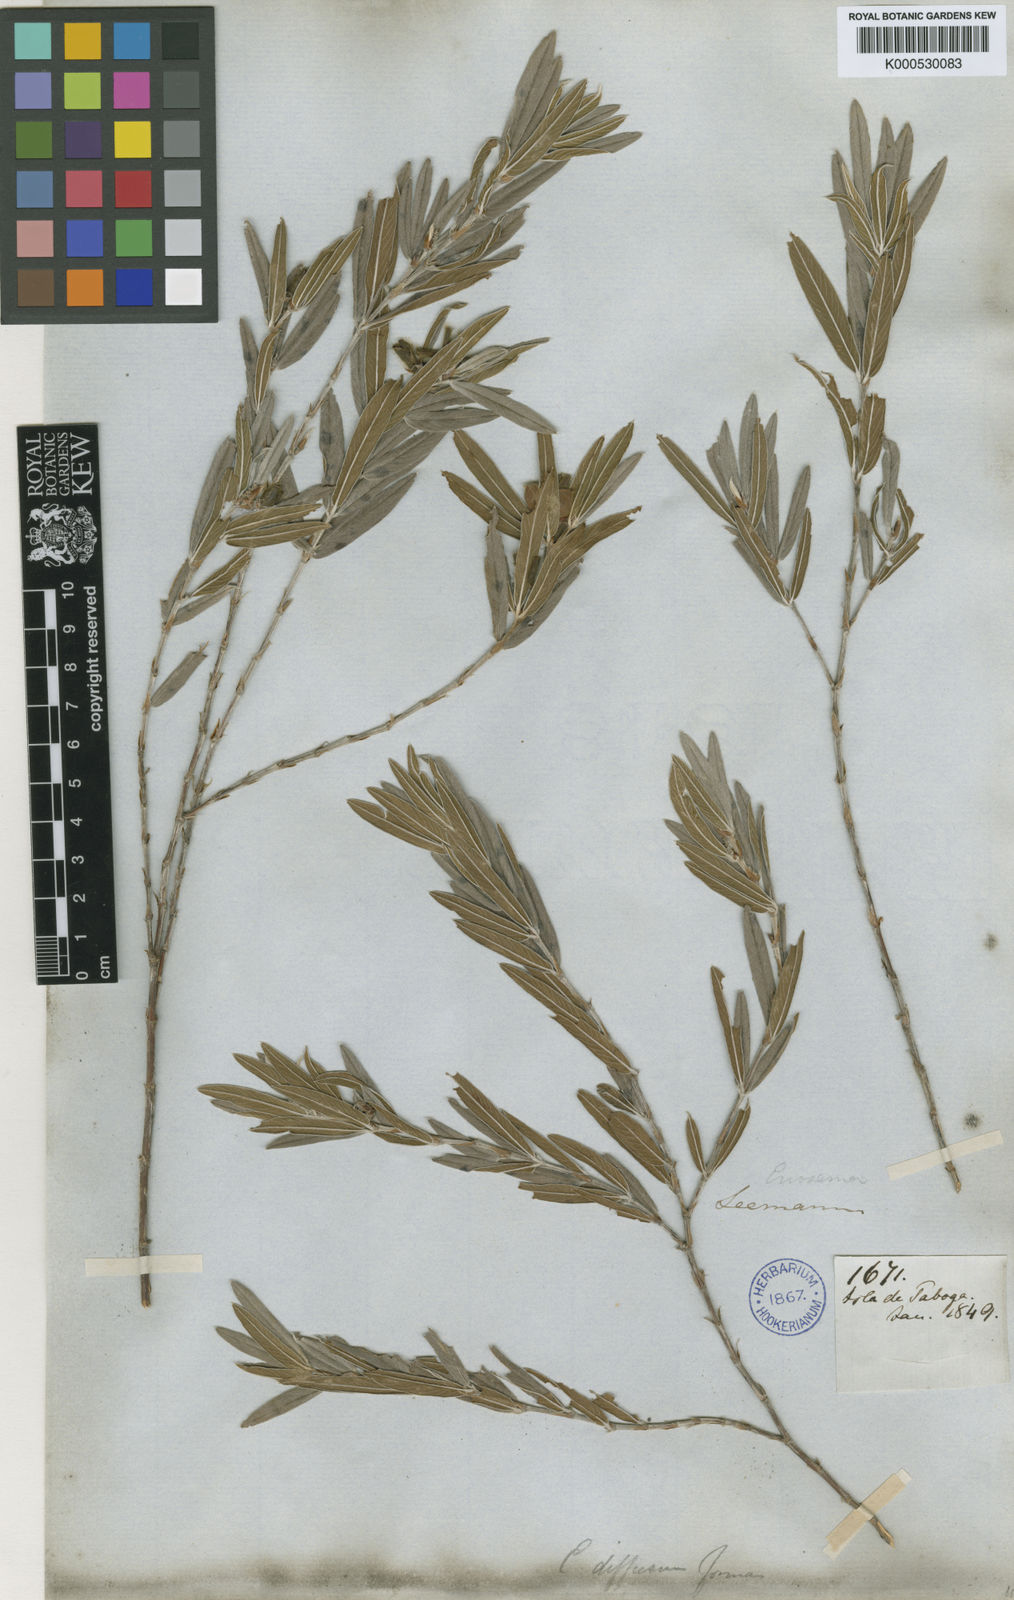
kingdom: Plantae
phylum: Tracheophyta
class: Magnoliopsida
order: Fabales
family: Fabaceae
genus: Eriosema
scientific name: Eriosema diffusum
